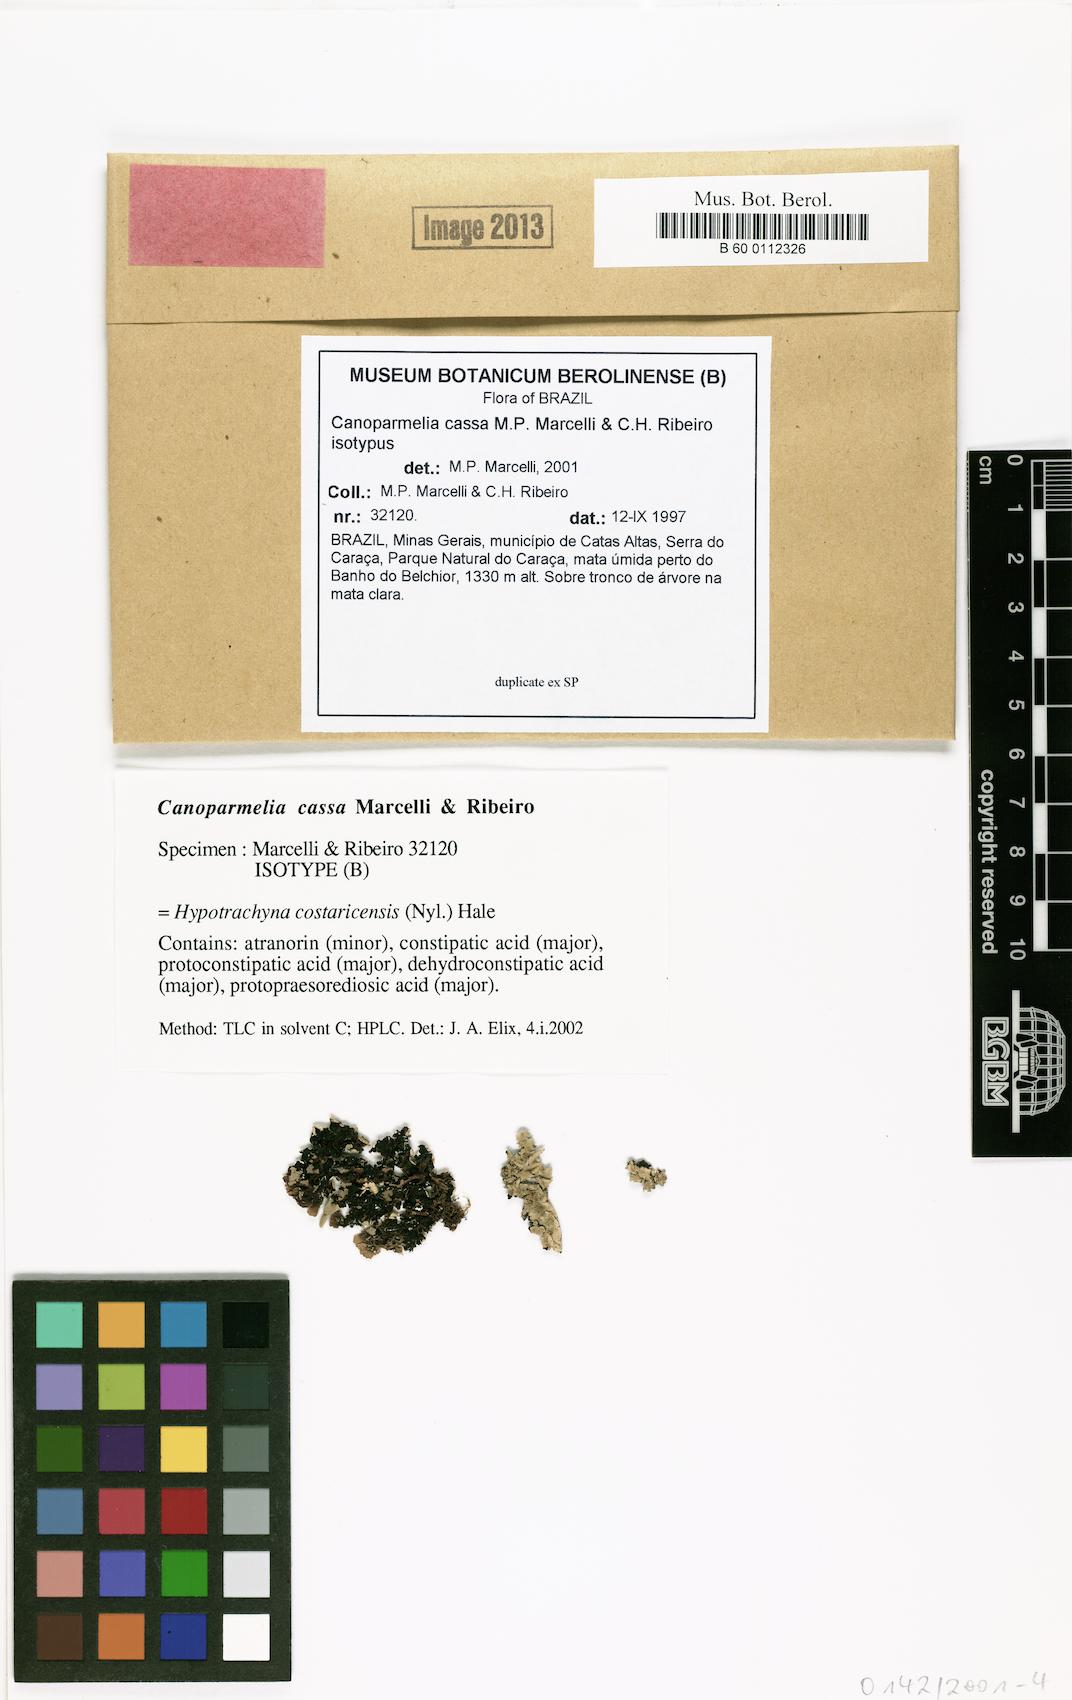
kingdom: Fungi
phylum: Ascomycota
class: Lecanoromycetes
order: Lecanorales
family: Parmeliaceae
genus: Canoparmelia
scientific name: Canoparmelia cassa
